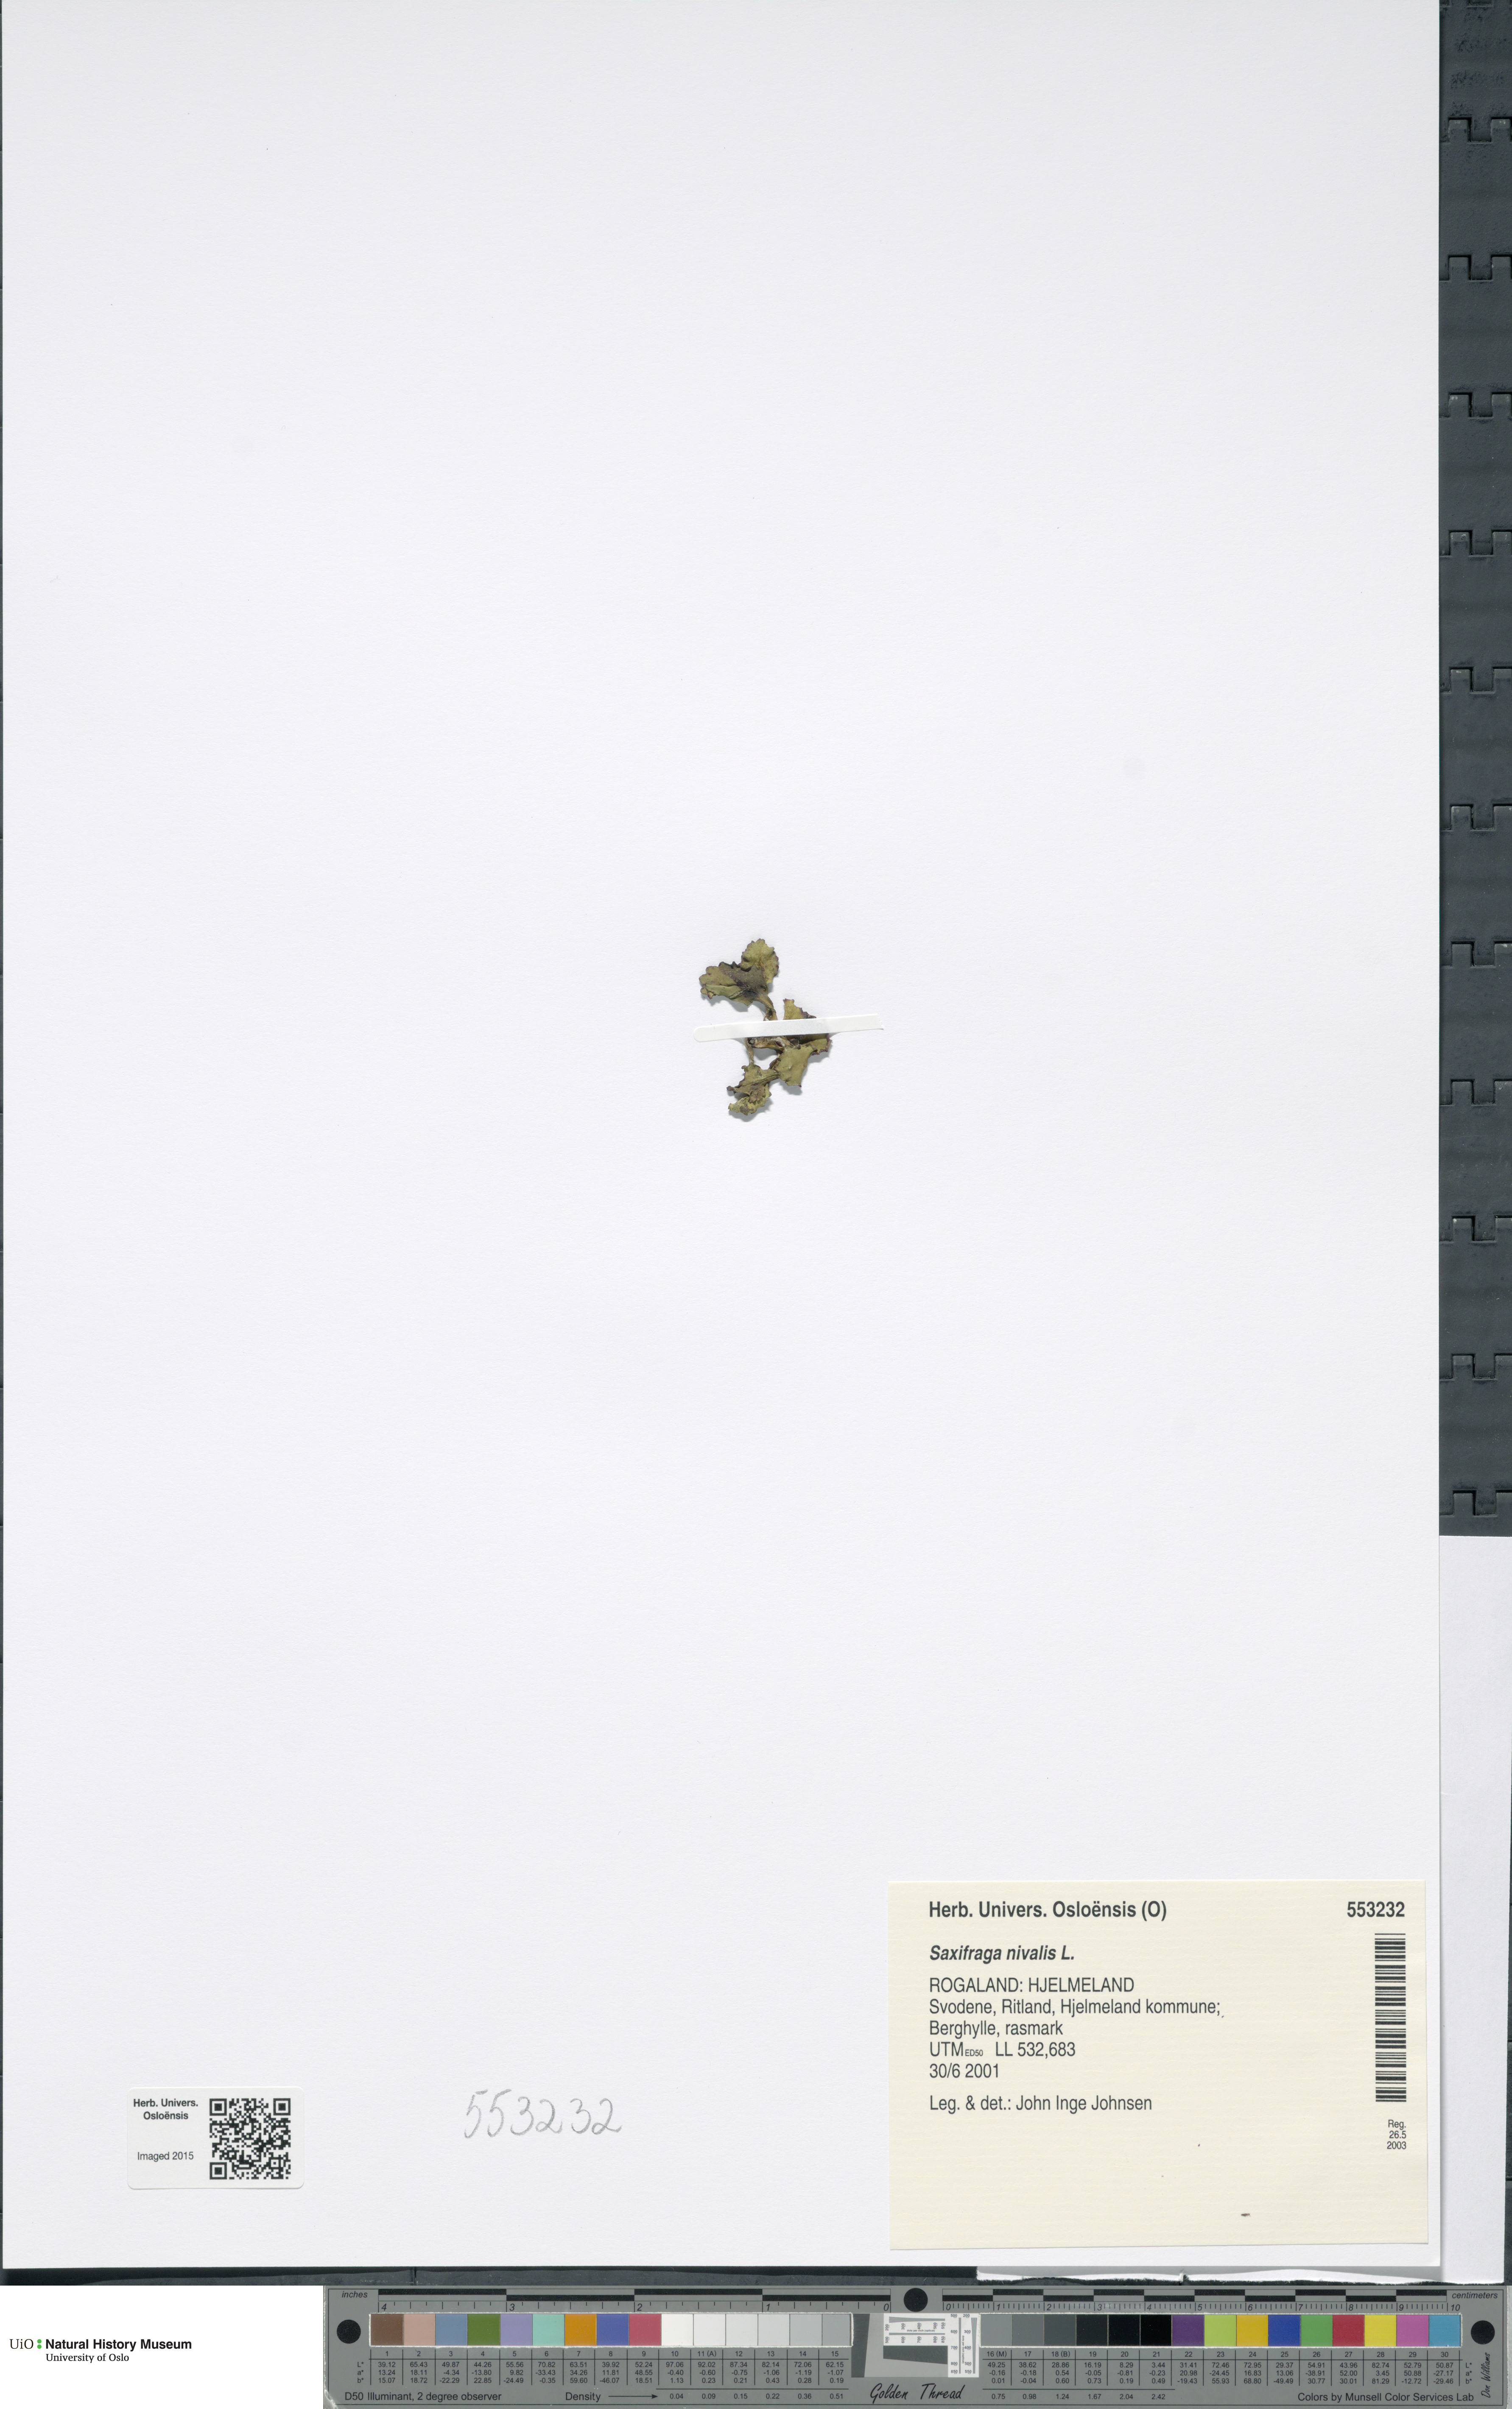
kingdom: Plantae
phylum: Tracheophyta
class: Magnoliopsida
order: Saxifragales
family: Saxifragaceae
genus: Micranthes
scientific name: Micranthes nivalis
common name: Alpine saxifrage
